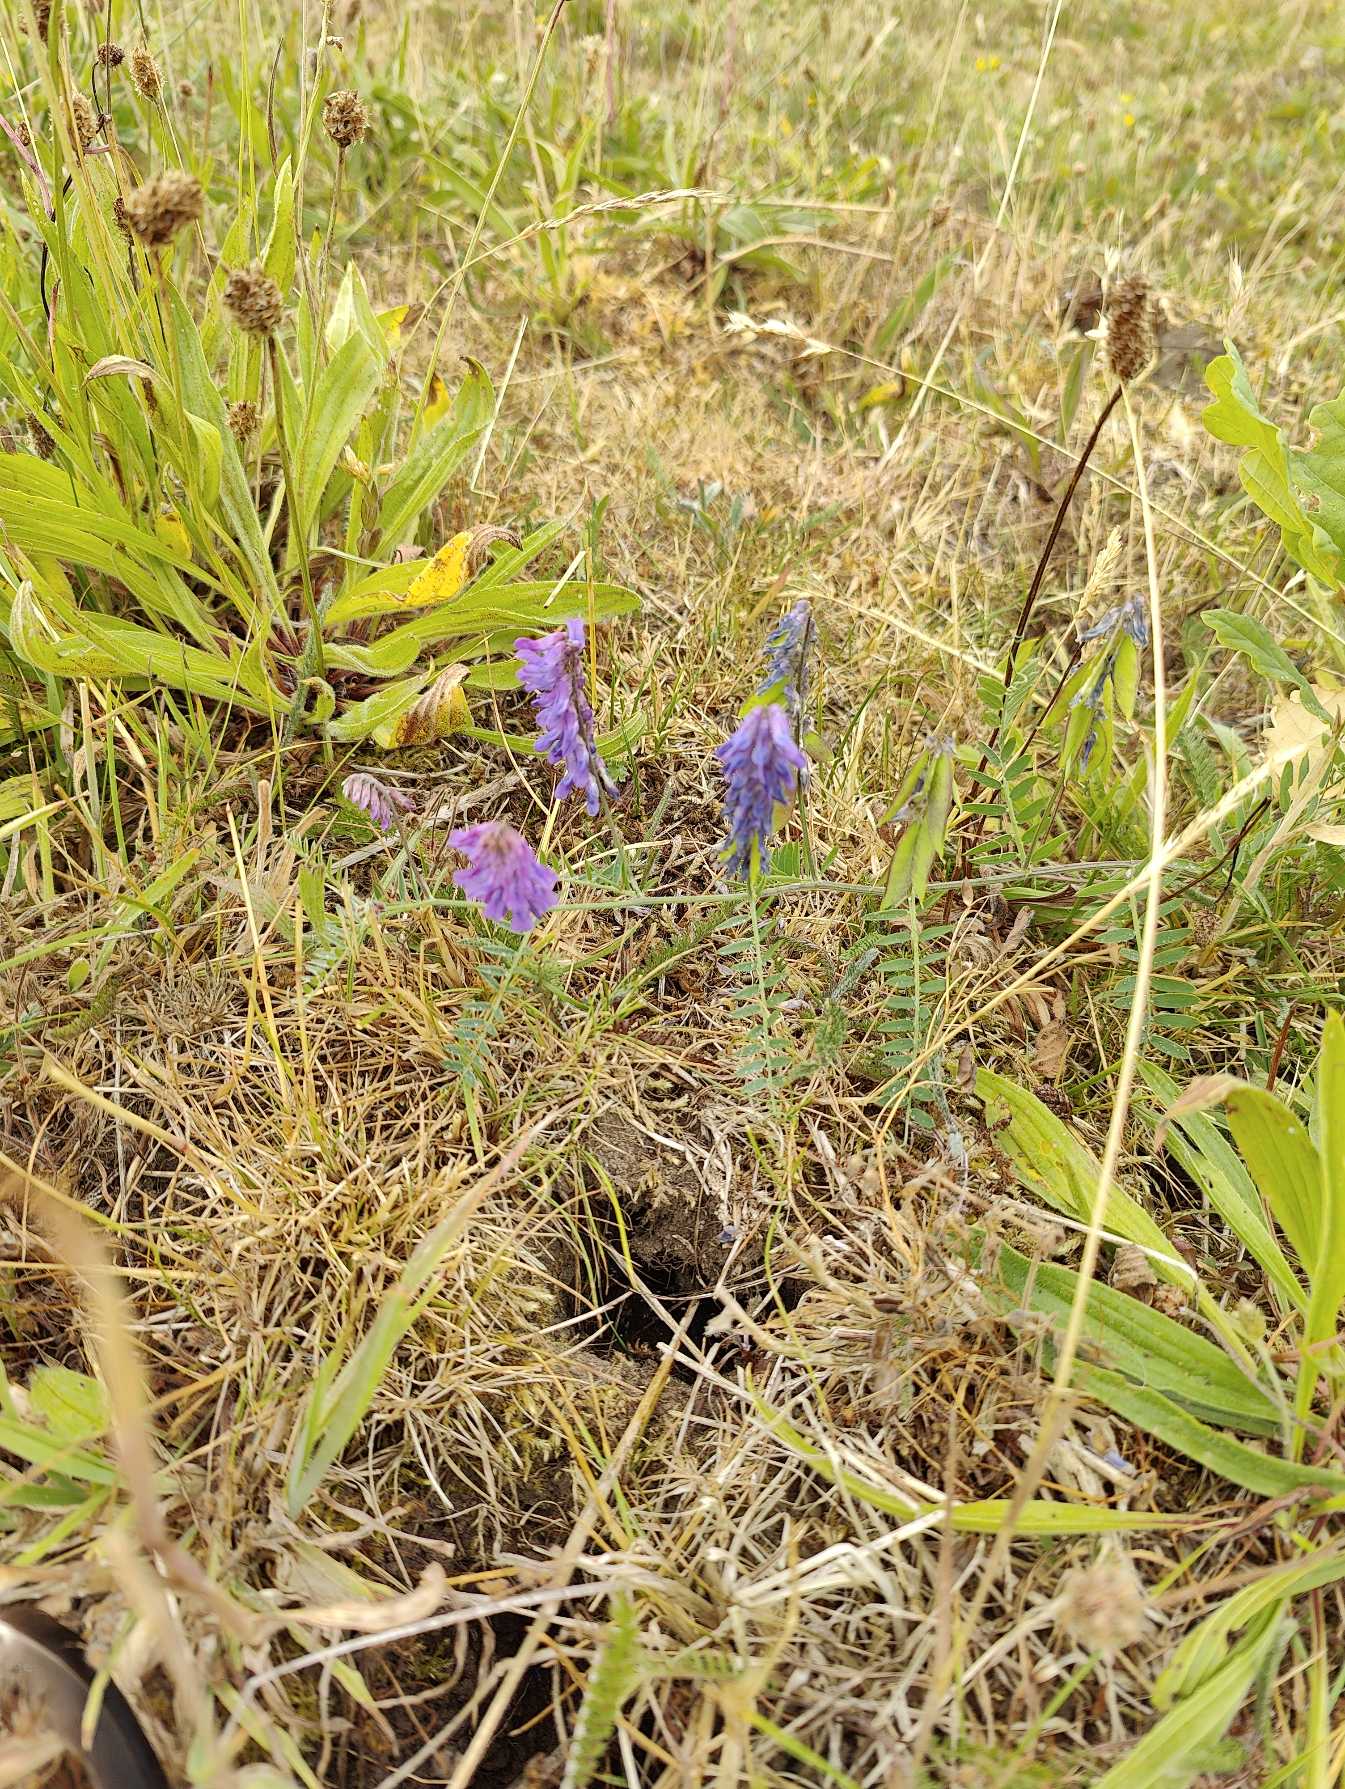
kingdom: Plantae
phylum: Tracheophyta
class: Magnoliopsida
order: Fabales
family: Fabaceae
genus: Vicia
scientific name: Vicia cracca
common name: Muse-vikke
